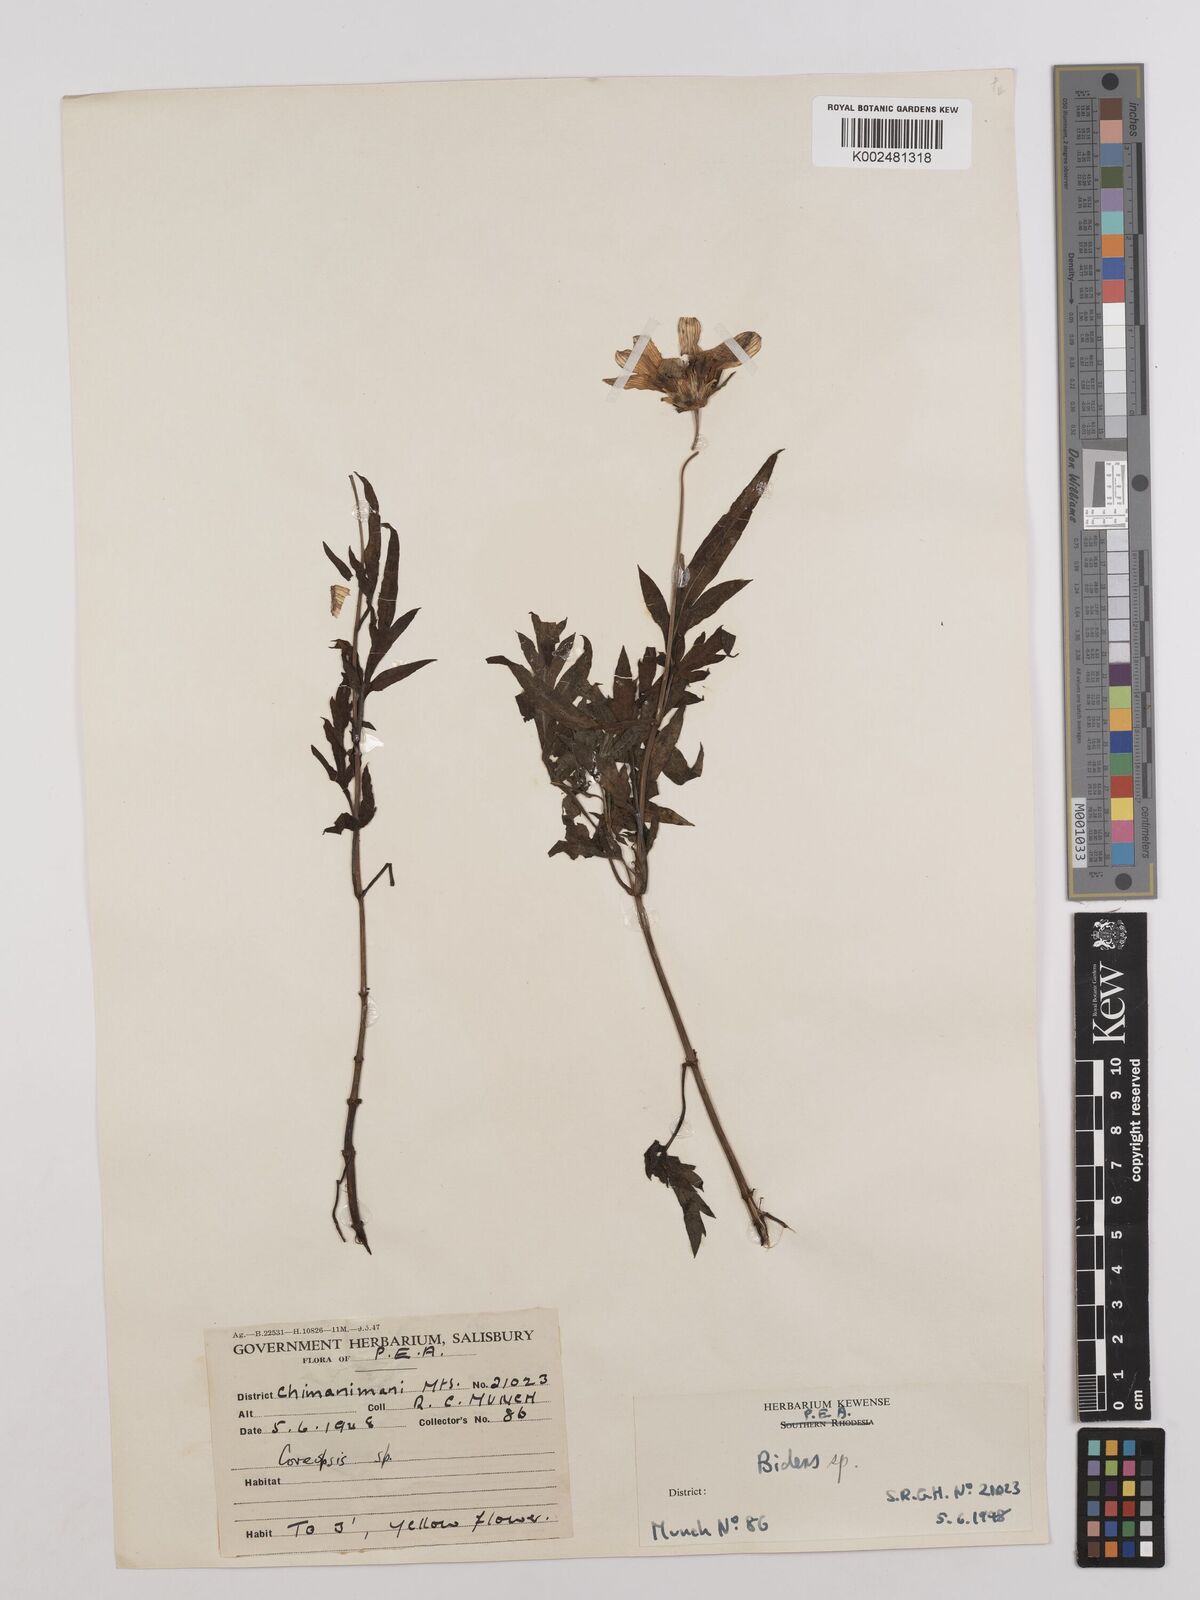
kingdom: Plantae
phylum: Tracheophyta
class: Magnoliopsida
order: Asterales
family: Asteraceae
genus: Bidens
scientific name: Bidens kilimandscharica
